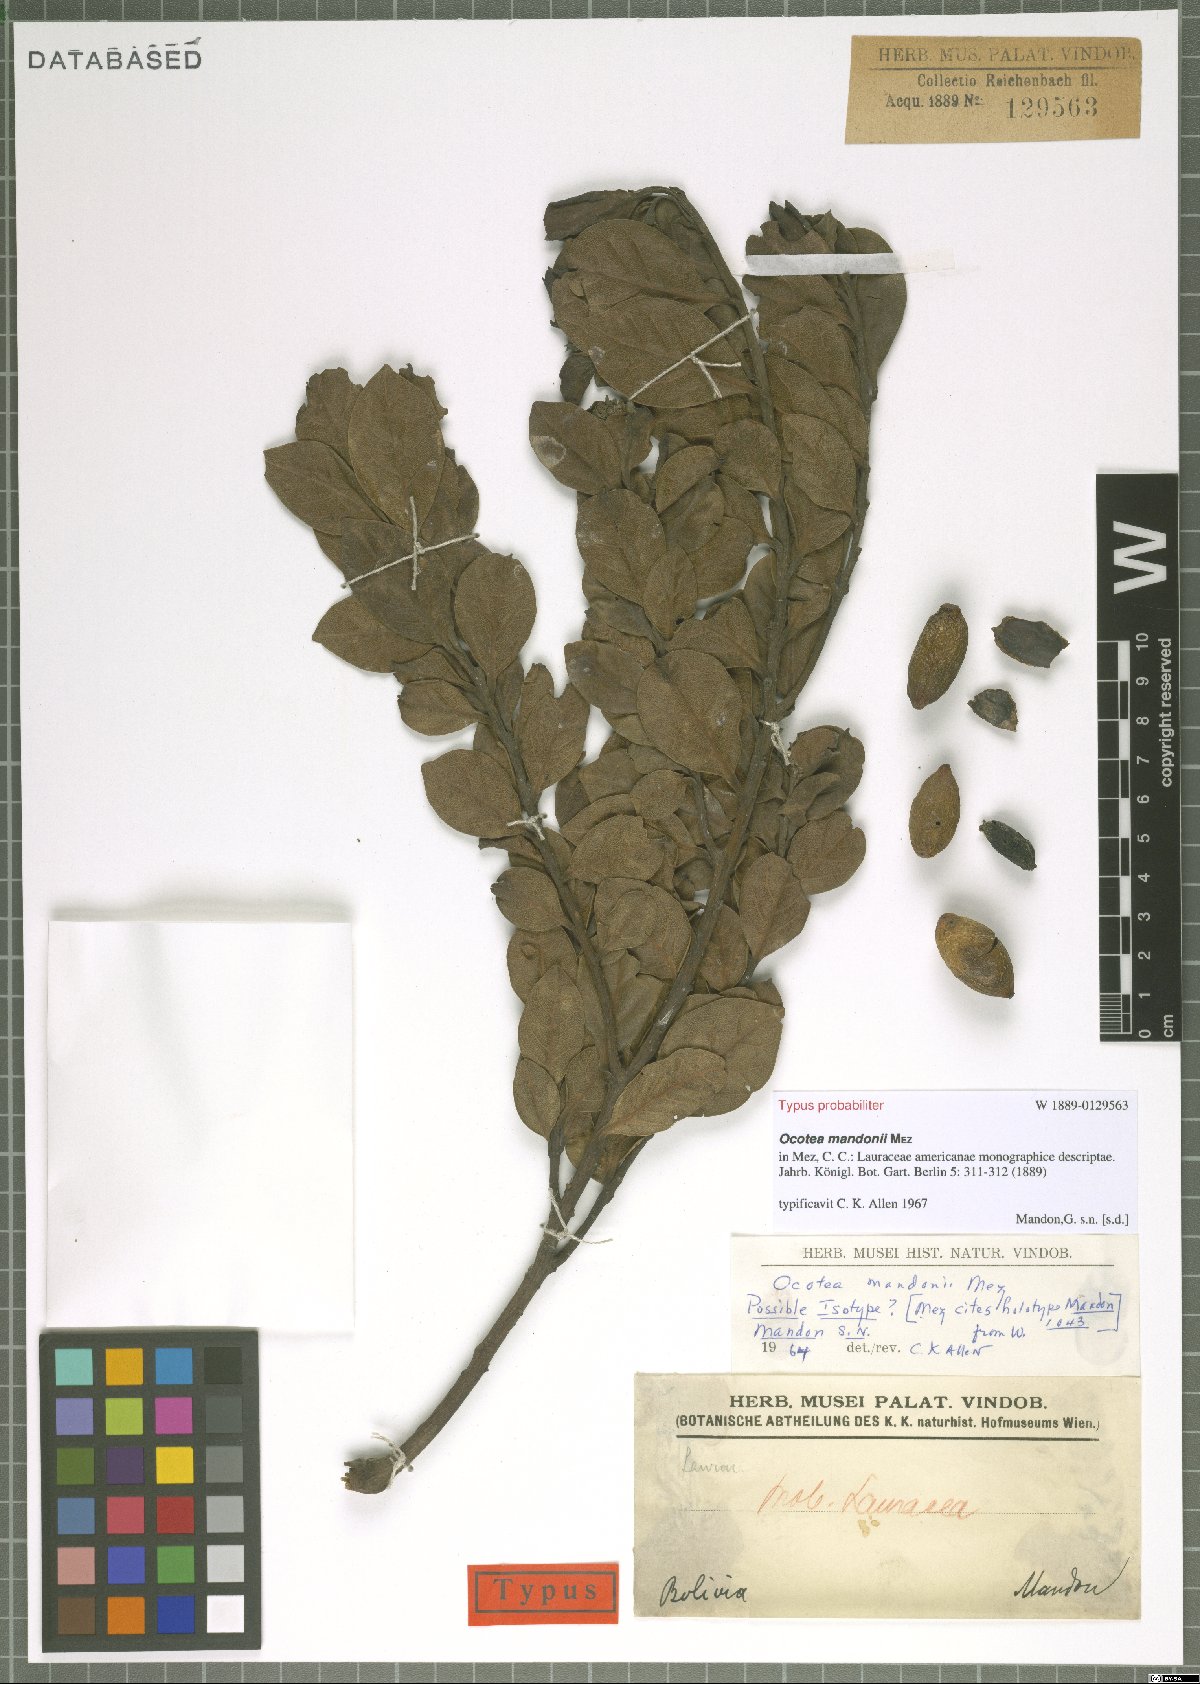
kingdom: Plantae
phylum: Tracheophyta
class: Magnoliopsida
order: Laurales
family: Lauraceae
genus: Ocotea
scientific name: Ocotea mandonii
